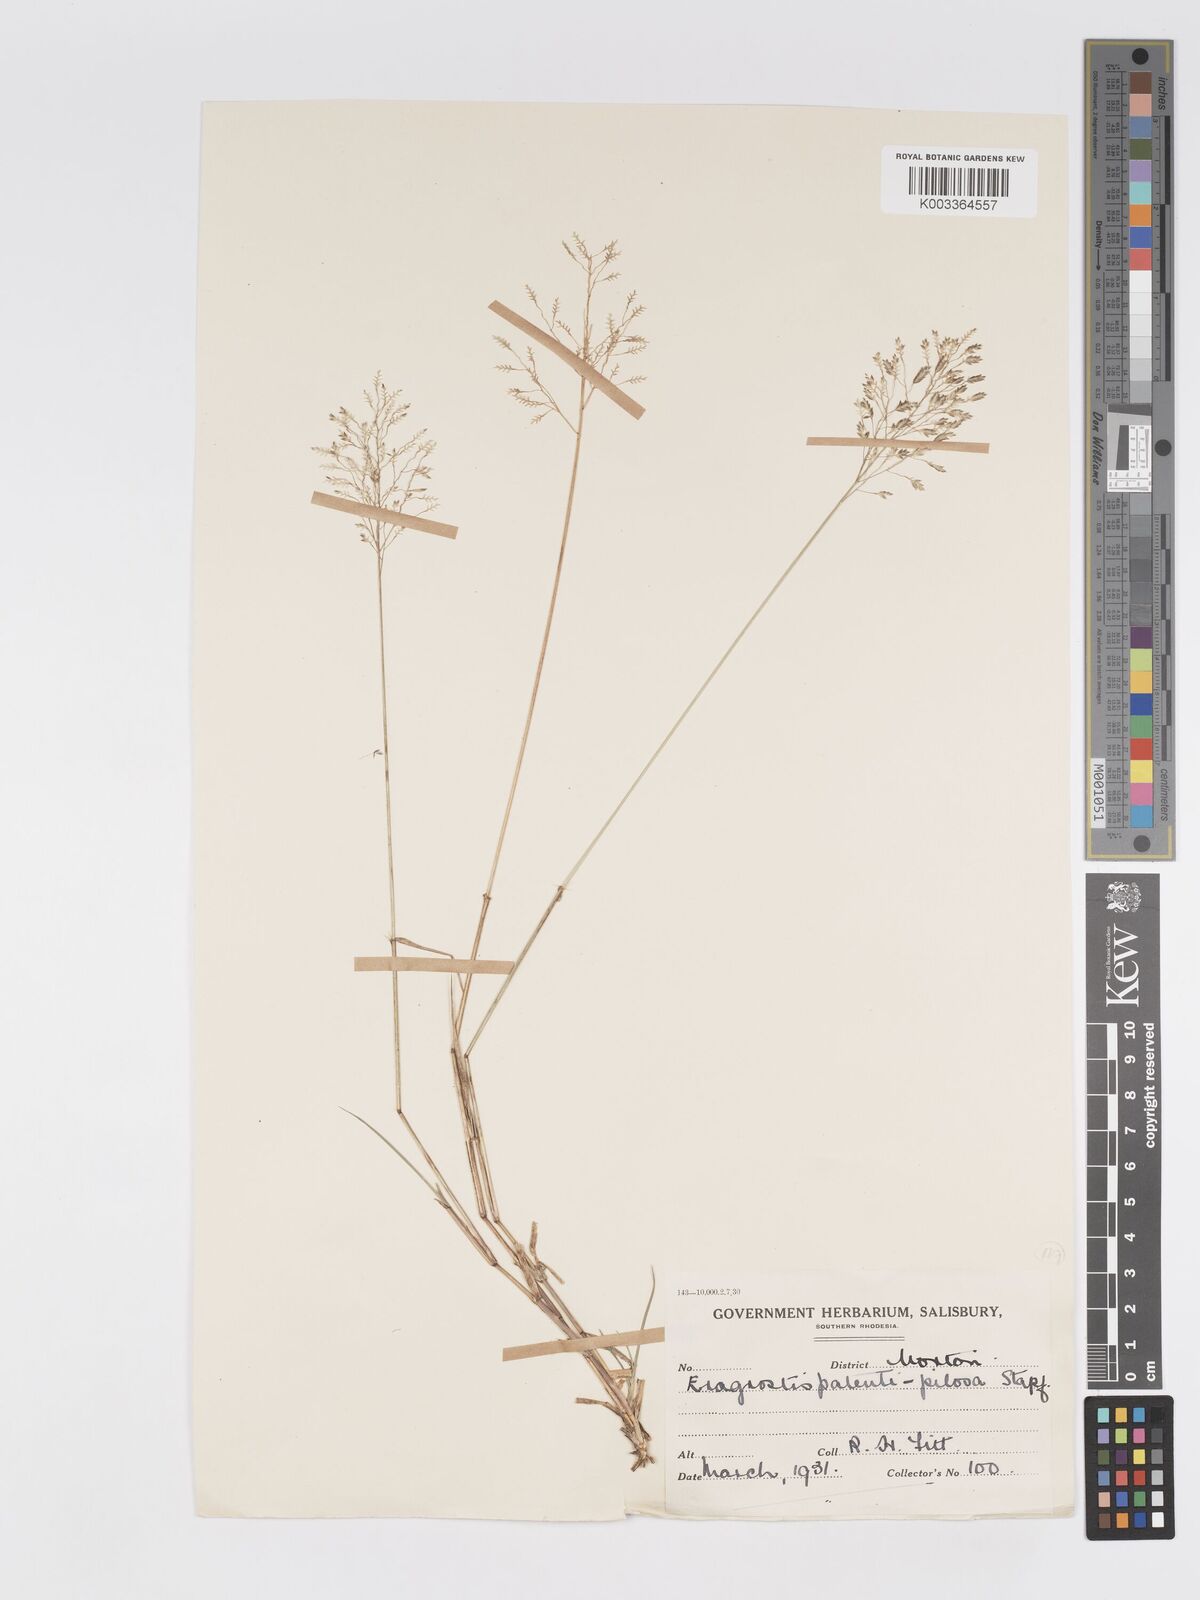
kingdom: Plantae
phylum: Tracheophyta
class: Liliopsida
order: Poales
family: Poaceae
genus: Eragrostis
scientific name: Eragrostis patentipilosa
